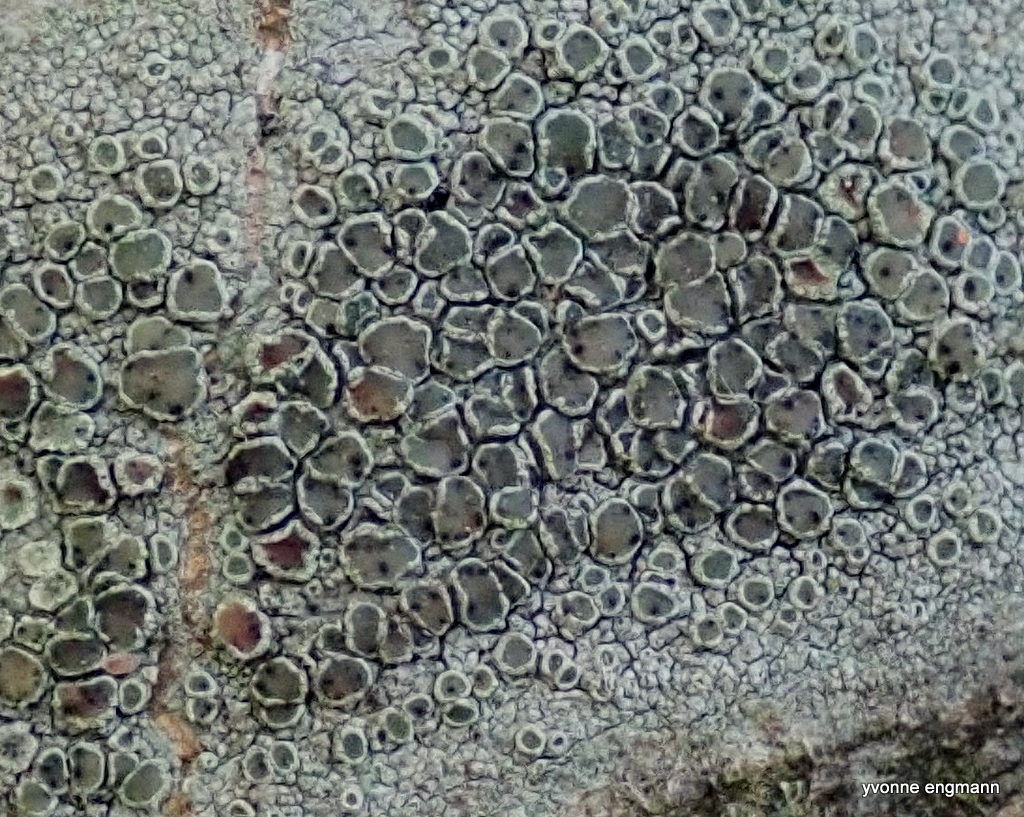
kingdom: Fungi
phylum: Ascomycota
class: Dothideomycetes
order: Pleosporales
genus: Vouauxiella
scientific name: Vouauxiella lichenicola
